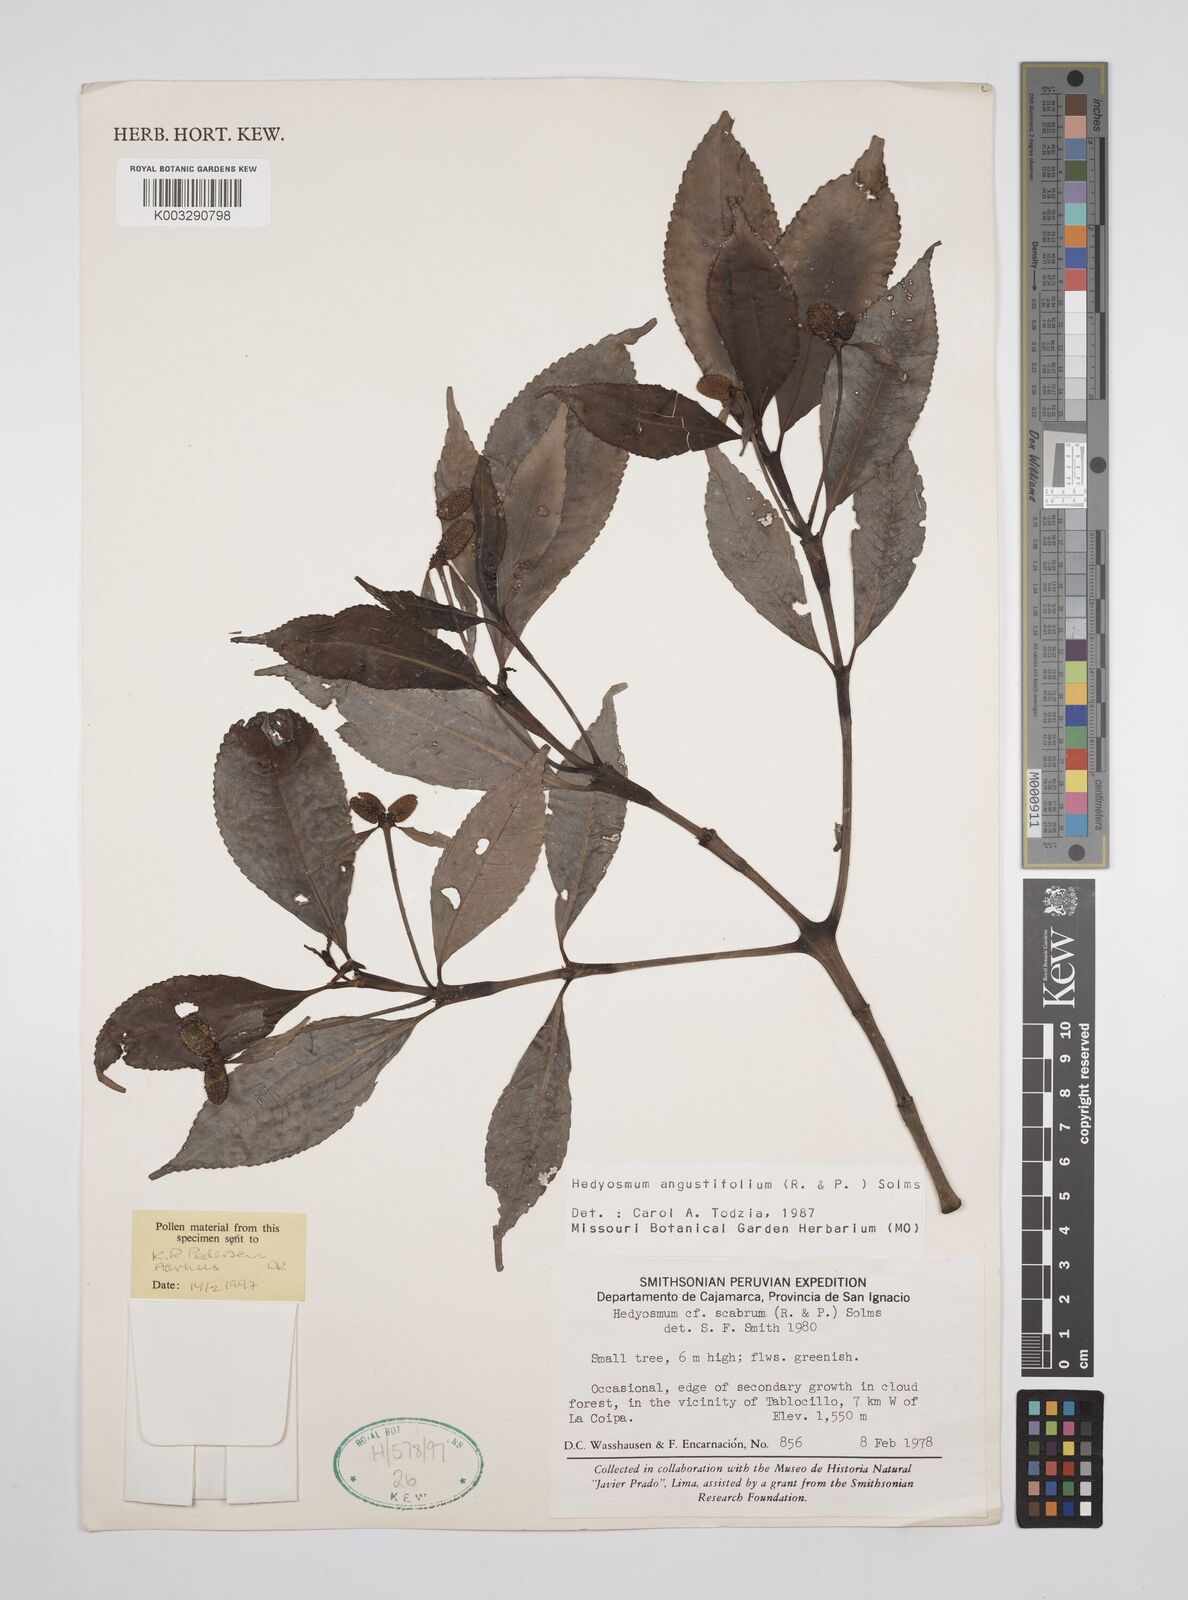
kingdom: Plantae
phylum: Tracheophyta
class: Magnoliopsida
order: Chloranthales
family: Chloranthaceae
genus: Hedyosmum
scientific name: Hedyosmum angustifolium
